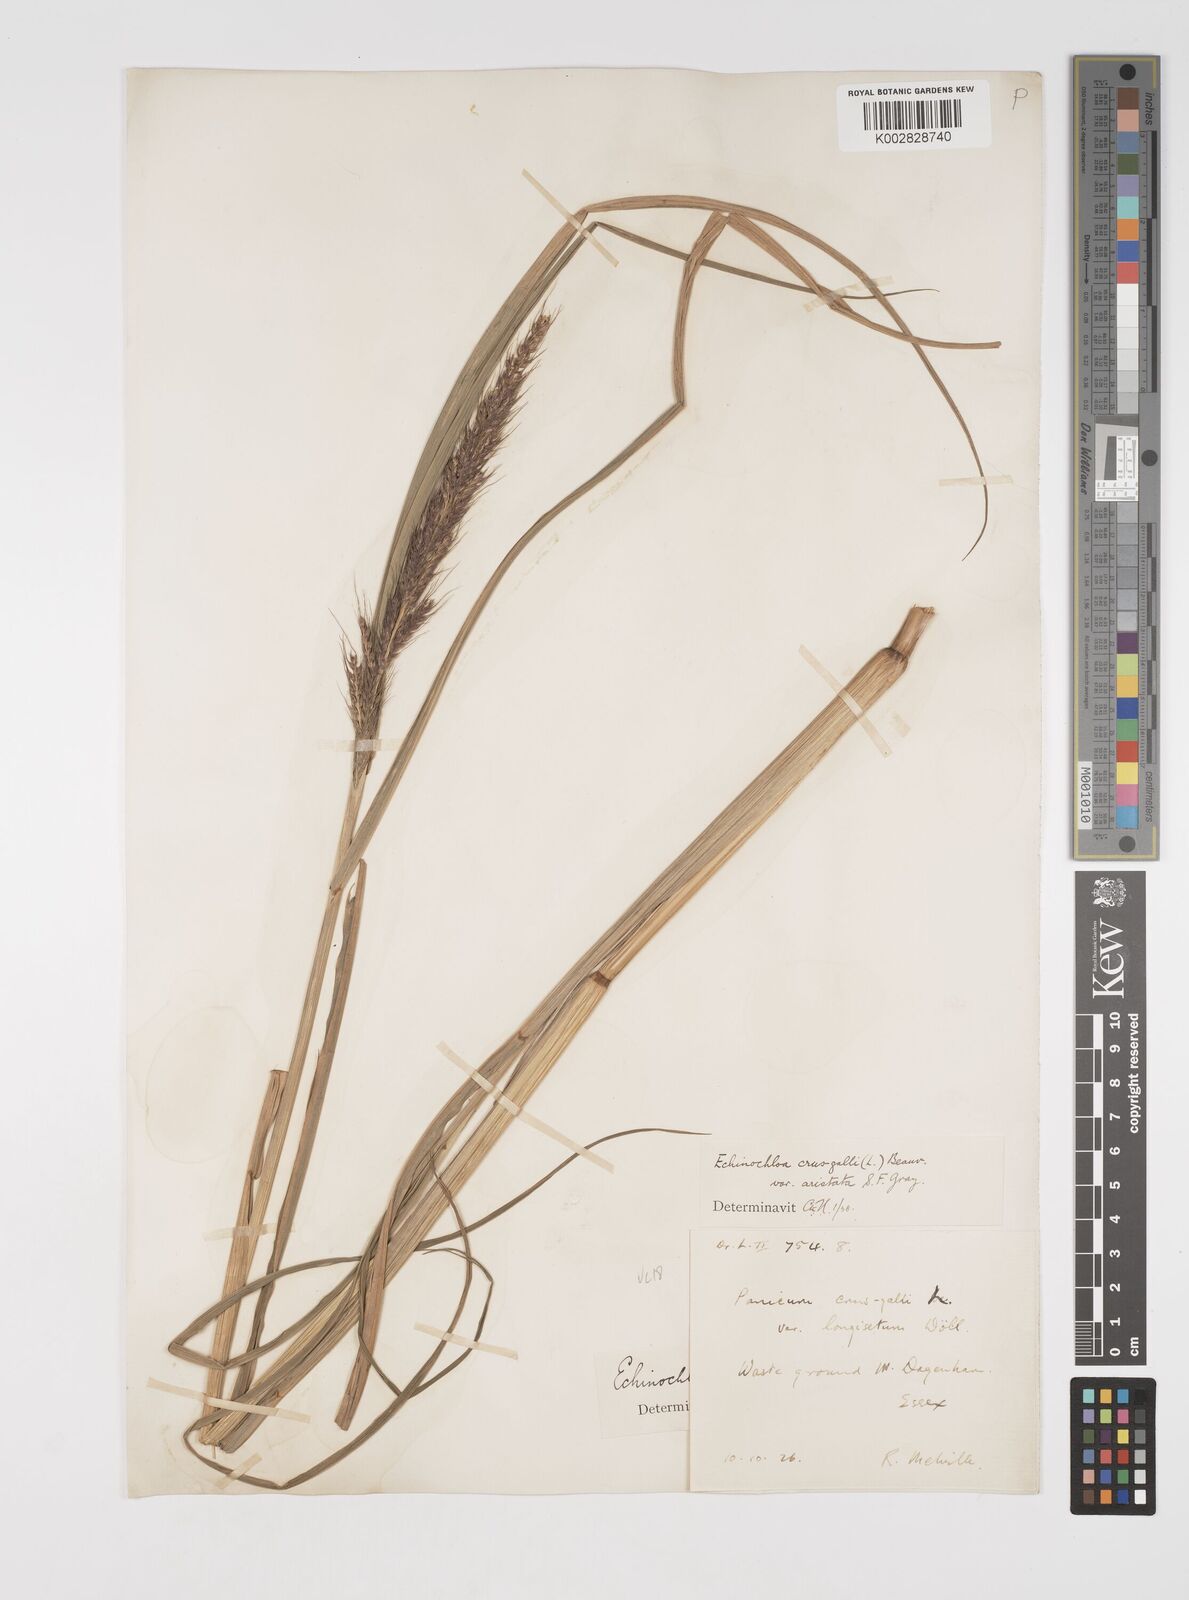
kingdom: Plantae
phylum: Tracheophyta
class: Liliopsida
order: Poales
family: Poaceae
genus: Echinochloa
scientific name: Echinochloa crus-galli
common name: Cockspur
